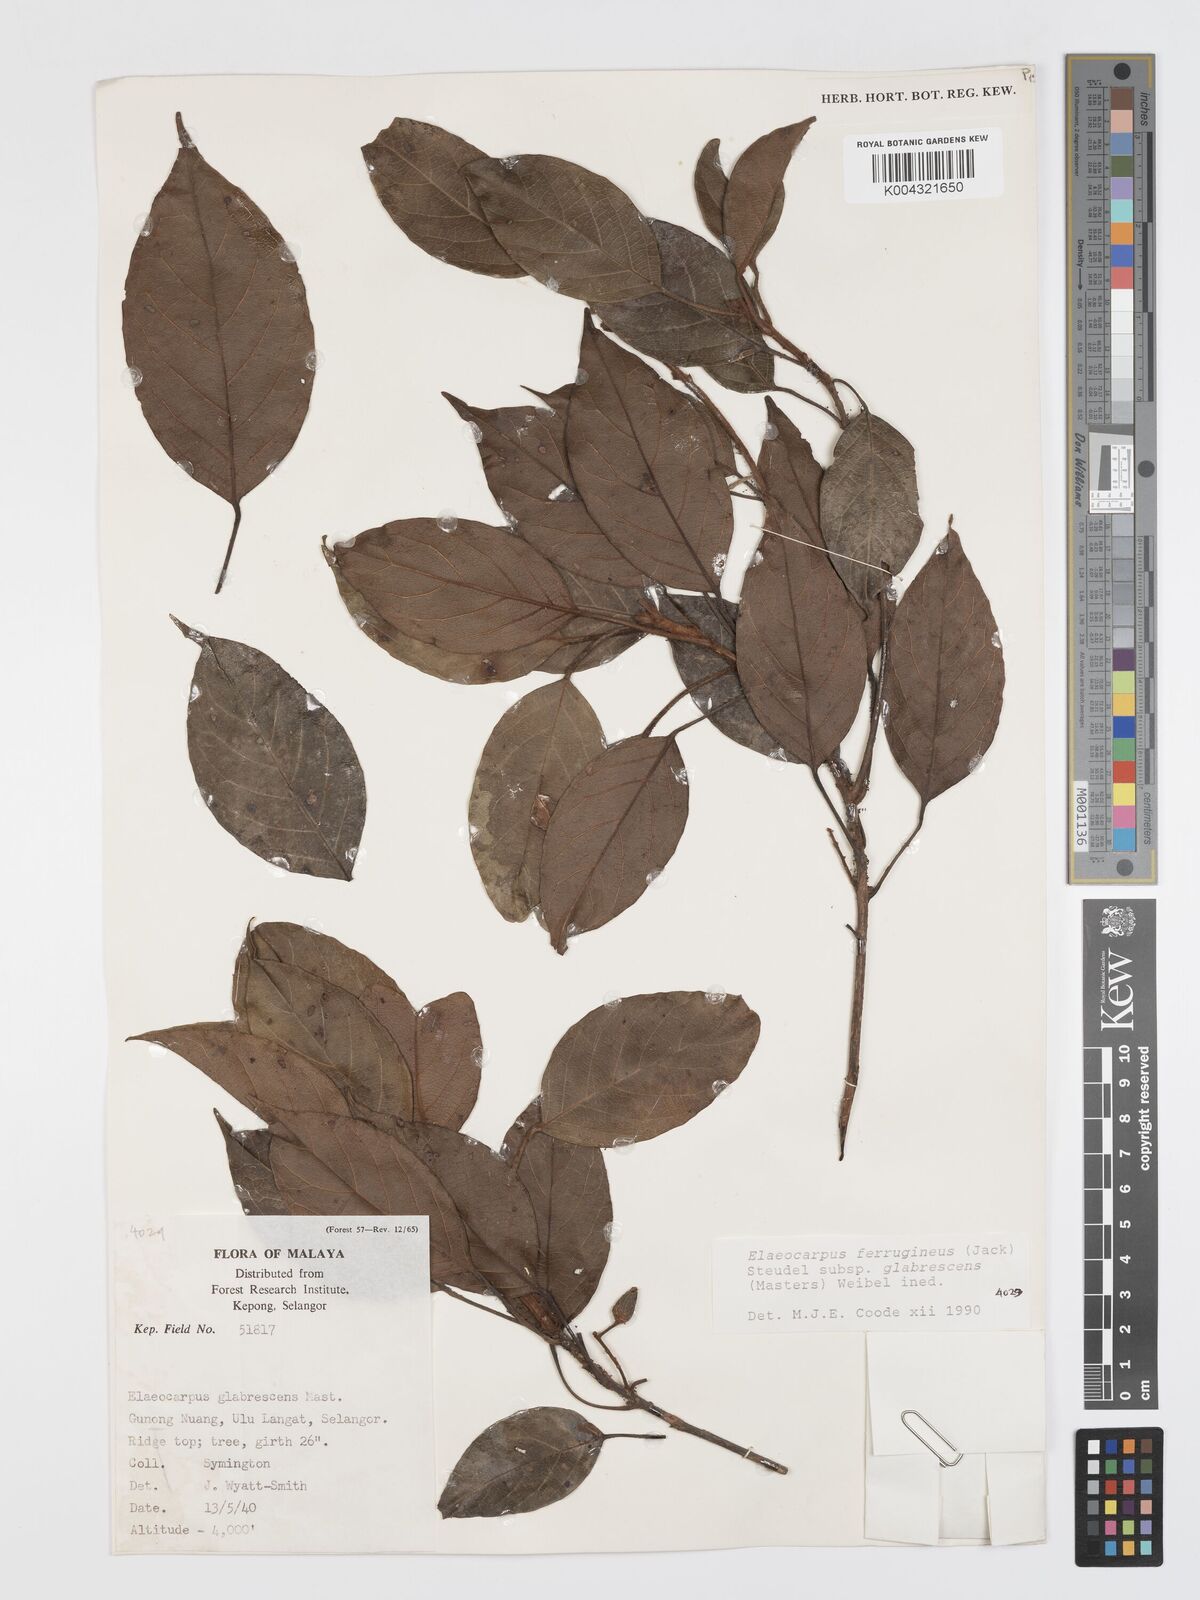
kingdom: Plantae
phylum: Tracheophyta
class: Magnoliopsida
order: Oxalidales
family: Elaeocarpaceae
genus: Elaeocarpus
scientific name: Elaeocarpus ferrugineus
